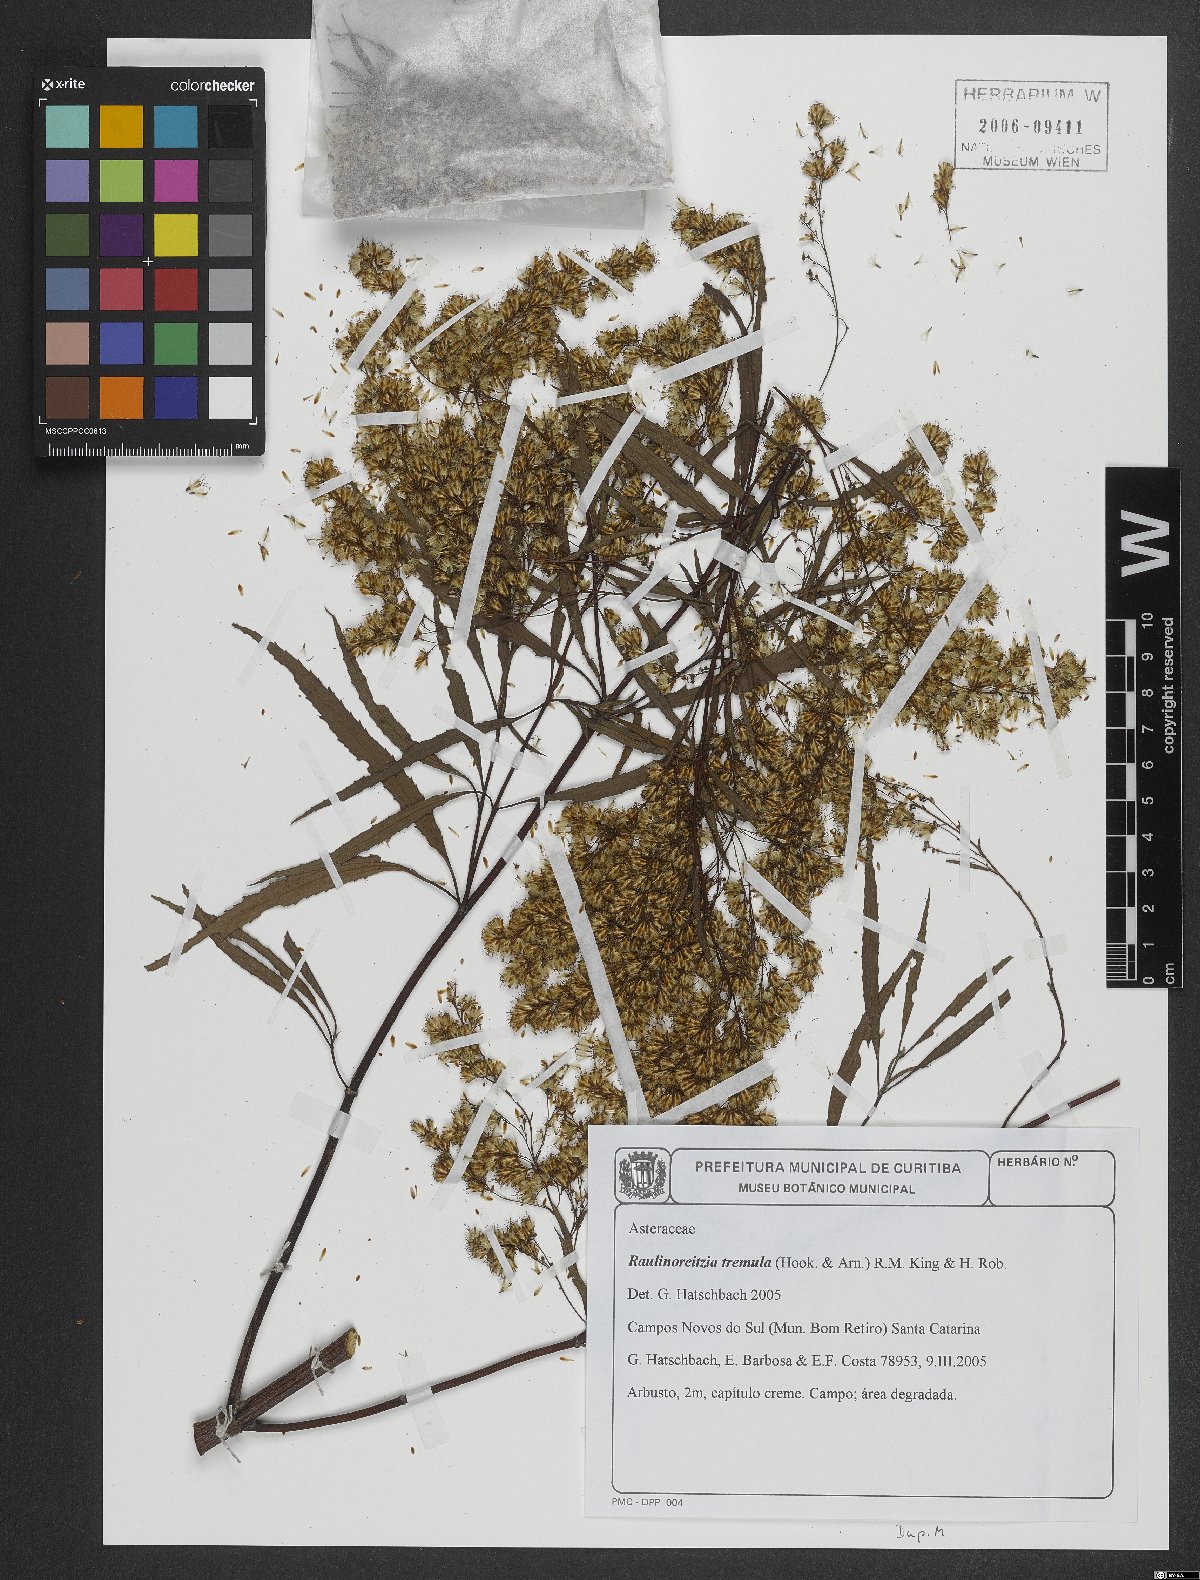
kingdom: Plantae
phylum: Tracheophyta
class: Magnoliopsida
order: Asterales
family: Asteraceae
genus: Raulinoreitzia
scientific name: Raulinoreitzia tremula
